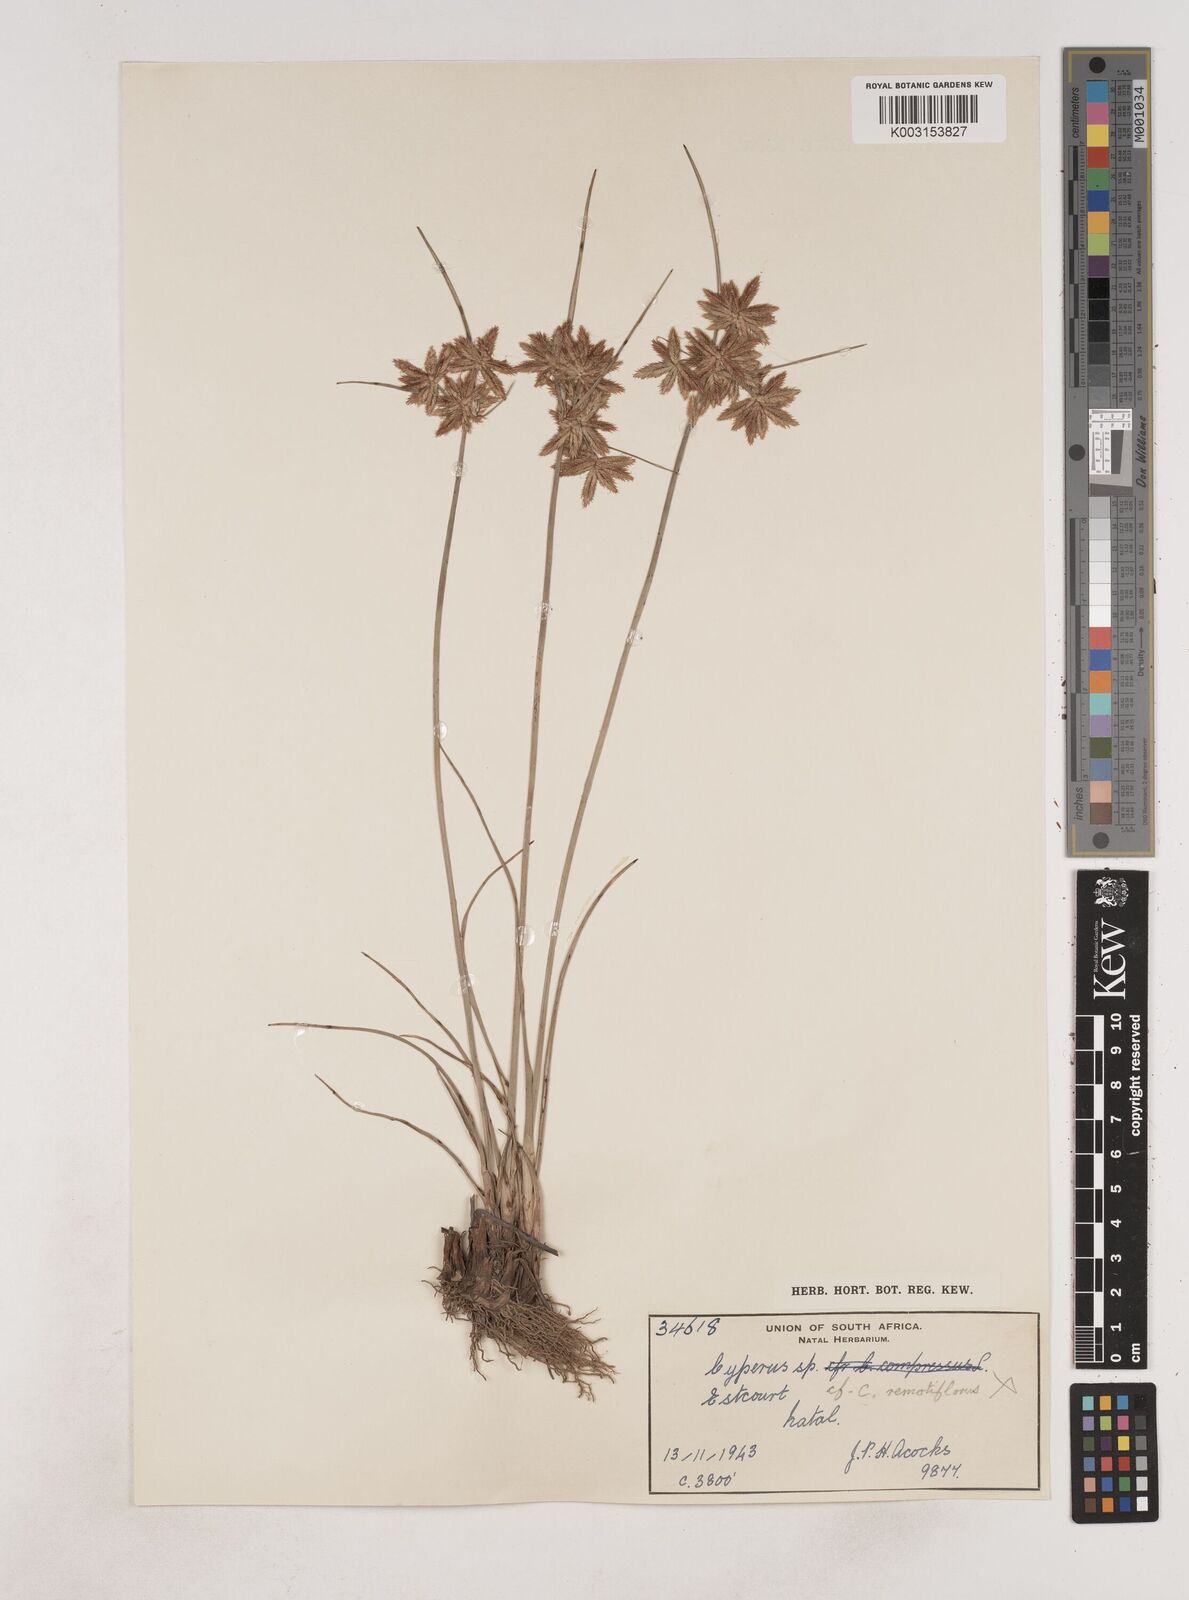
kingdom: Plantae
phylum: Tracheophyta
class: Liliopsida
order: Poales
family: Cyperaceae
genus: Cyperus
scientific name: Cyperus
